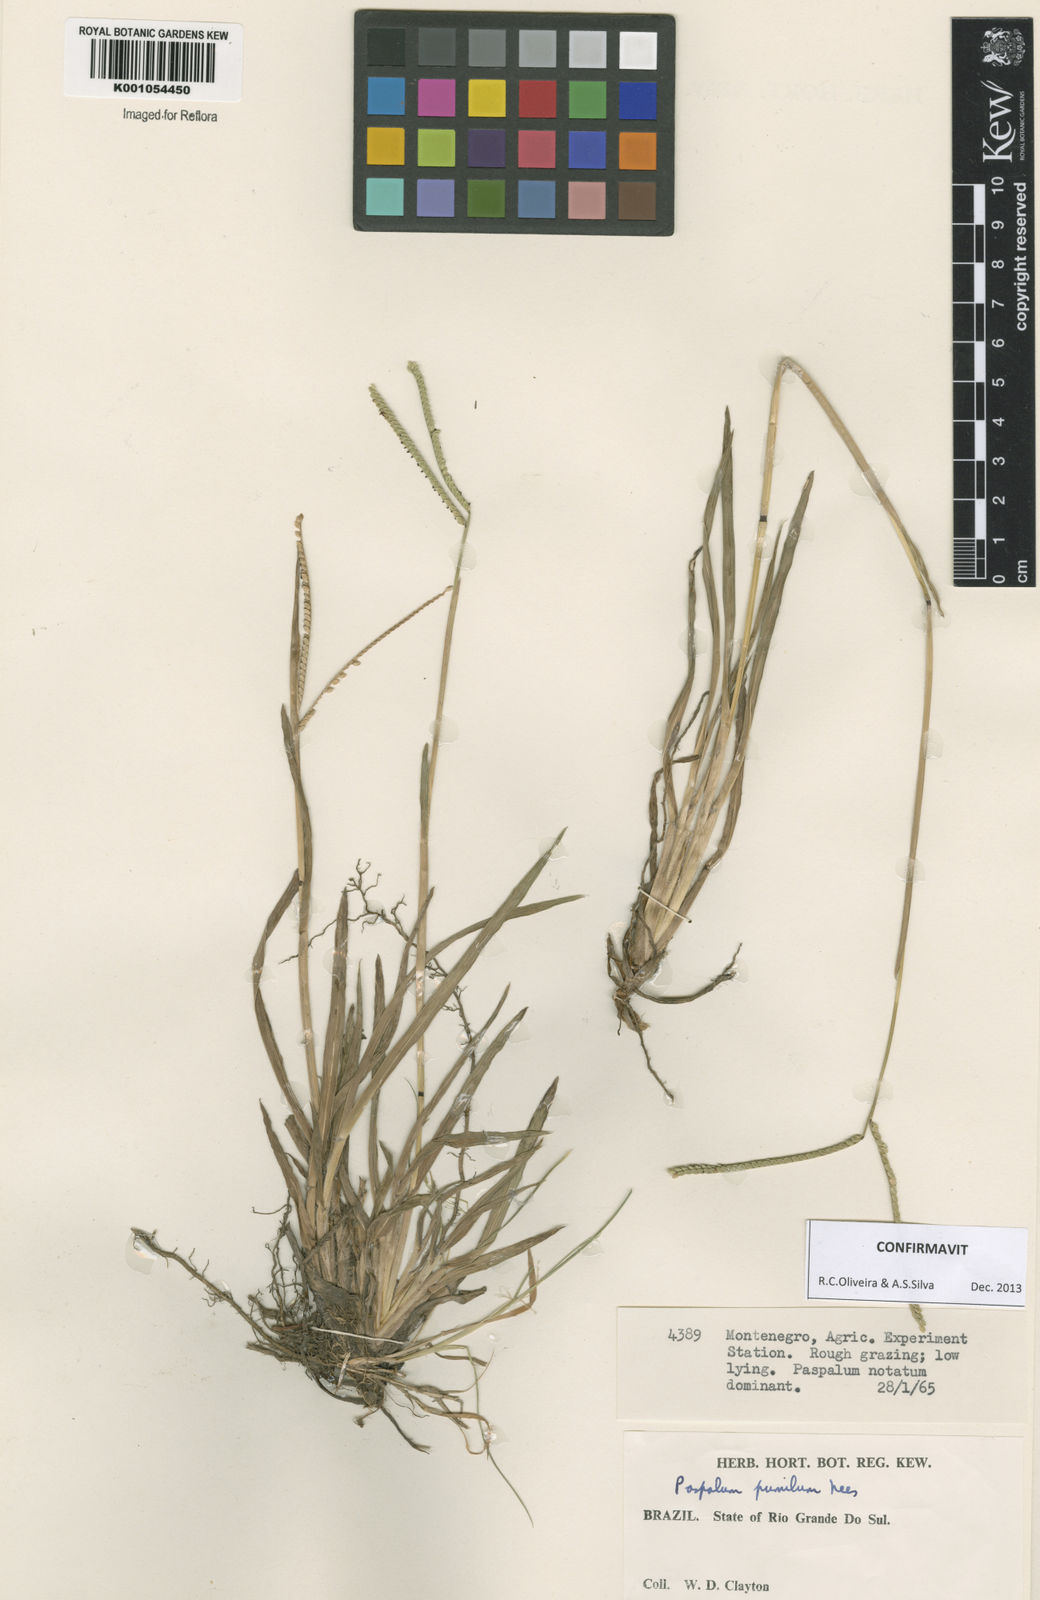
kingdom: Plantae
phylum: Tracheophyta
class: Liliopsida
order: Poales
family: Poaceae
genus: Paspalum
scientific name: Paspalum pumilum
